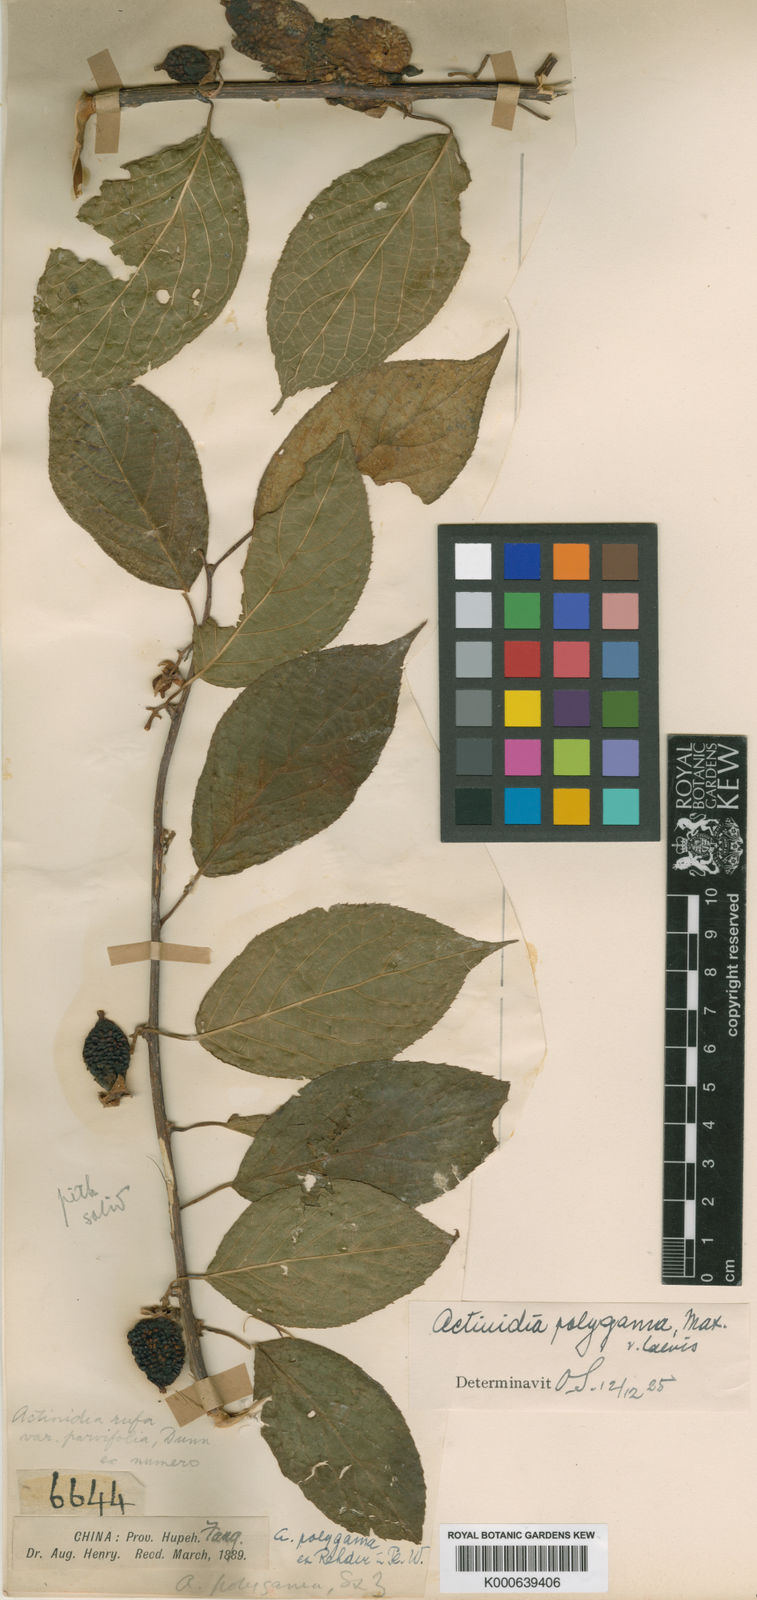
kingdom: Plantae
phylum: Tracheophyta
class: Magnoliopsida
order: Ericales
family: Actinidiaceae
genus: Actinidia
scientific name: Actinidia
